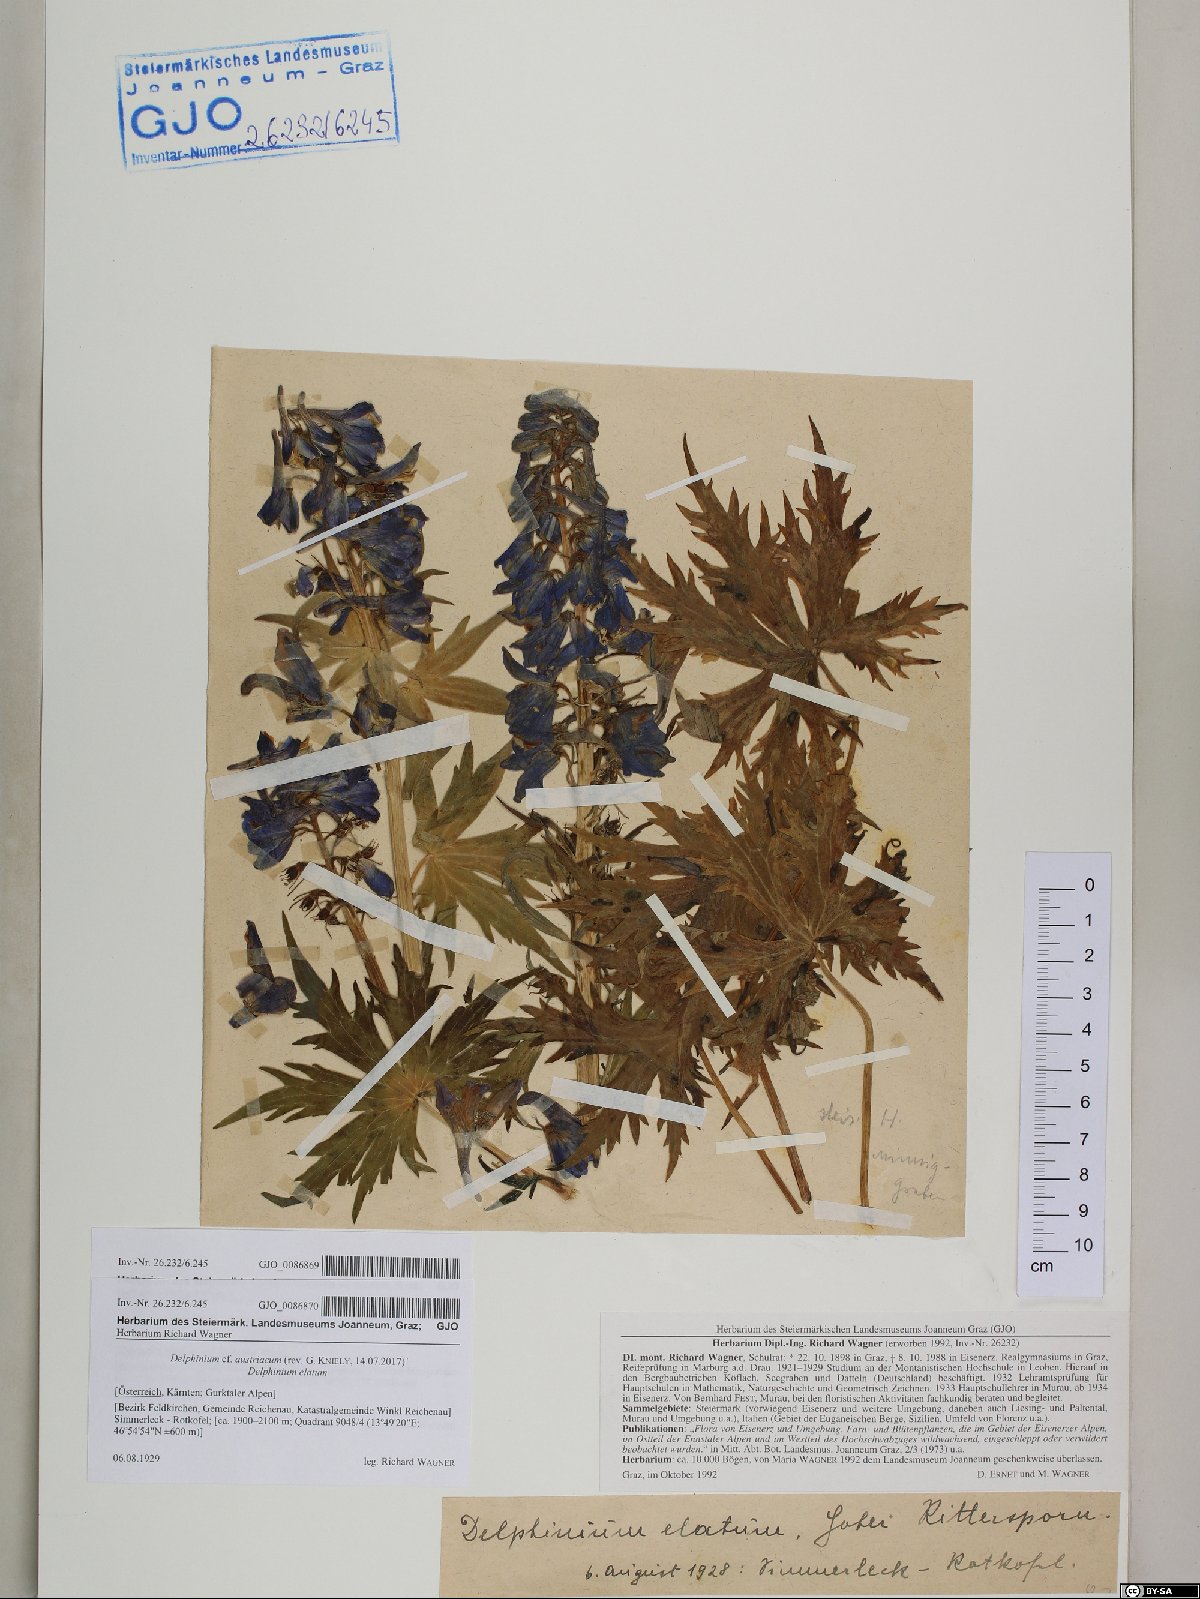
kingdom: Plantae
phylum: Tracheophyta
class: Magnoliopsida
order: Ranunculales
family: Ranunculaceae
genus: Delphinium
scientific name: Delphinium austriacum
